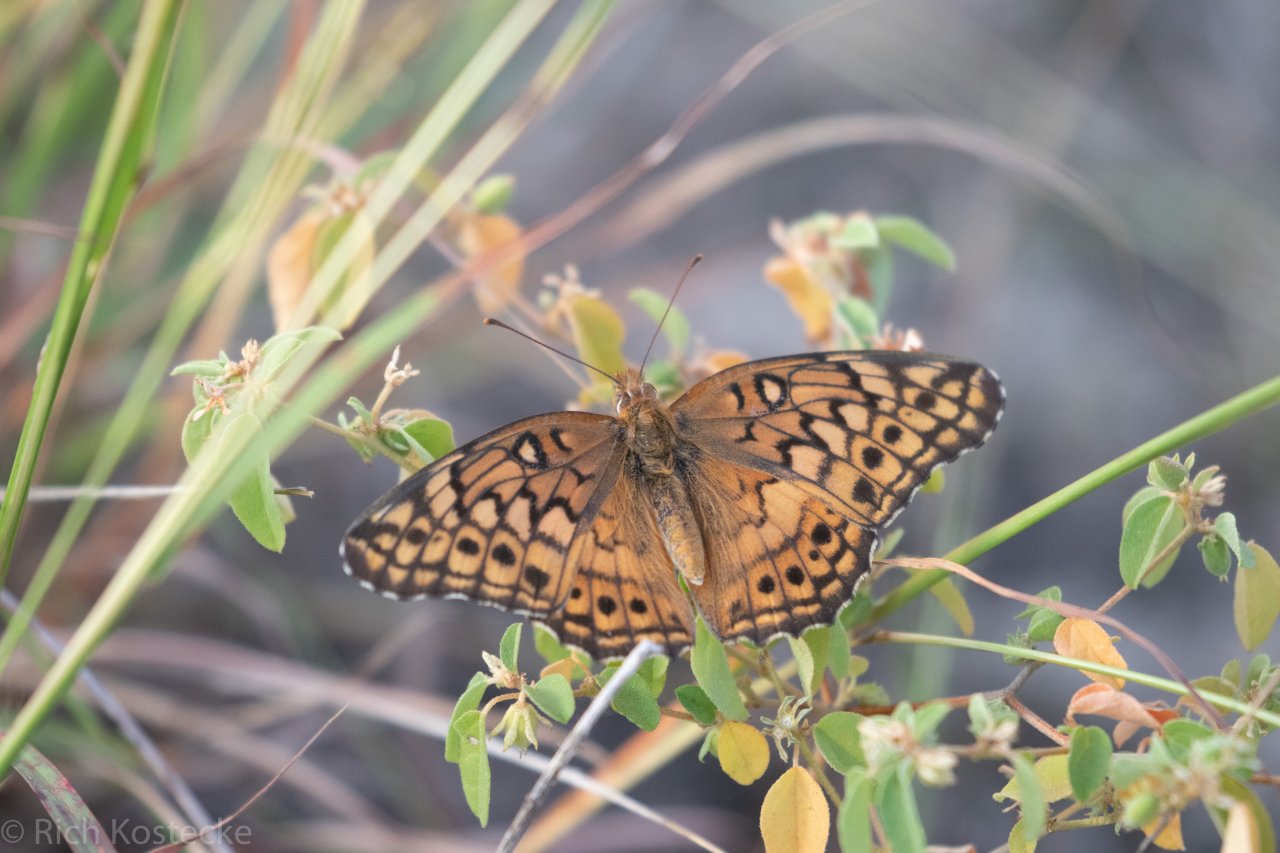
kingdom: Animalia
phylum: Arthropoda
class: Insecta
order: Lepidoptera
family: Nymphalidae
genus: Euptoieta
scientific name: Euptoieta claudia
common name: Variegated Fritillary
